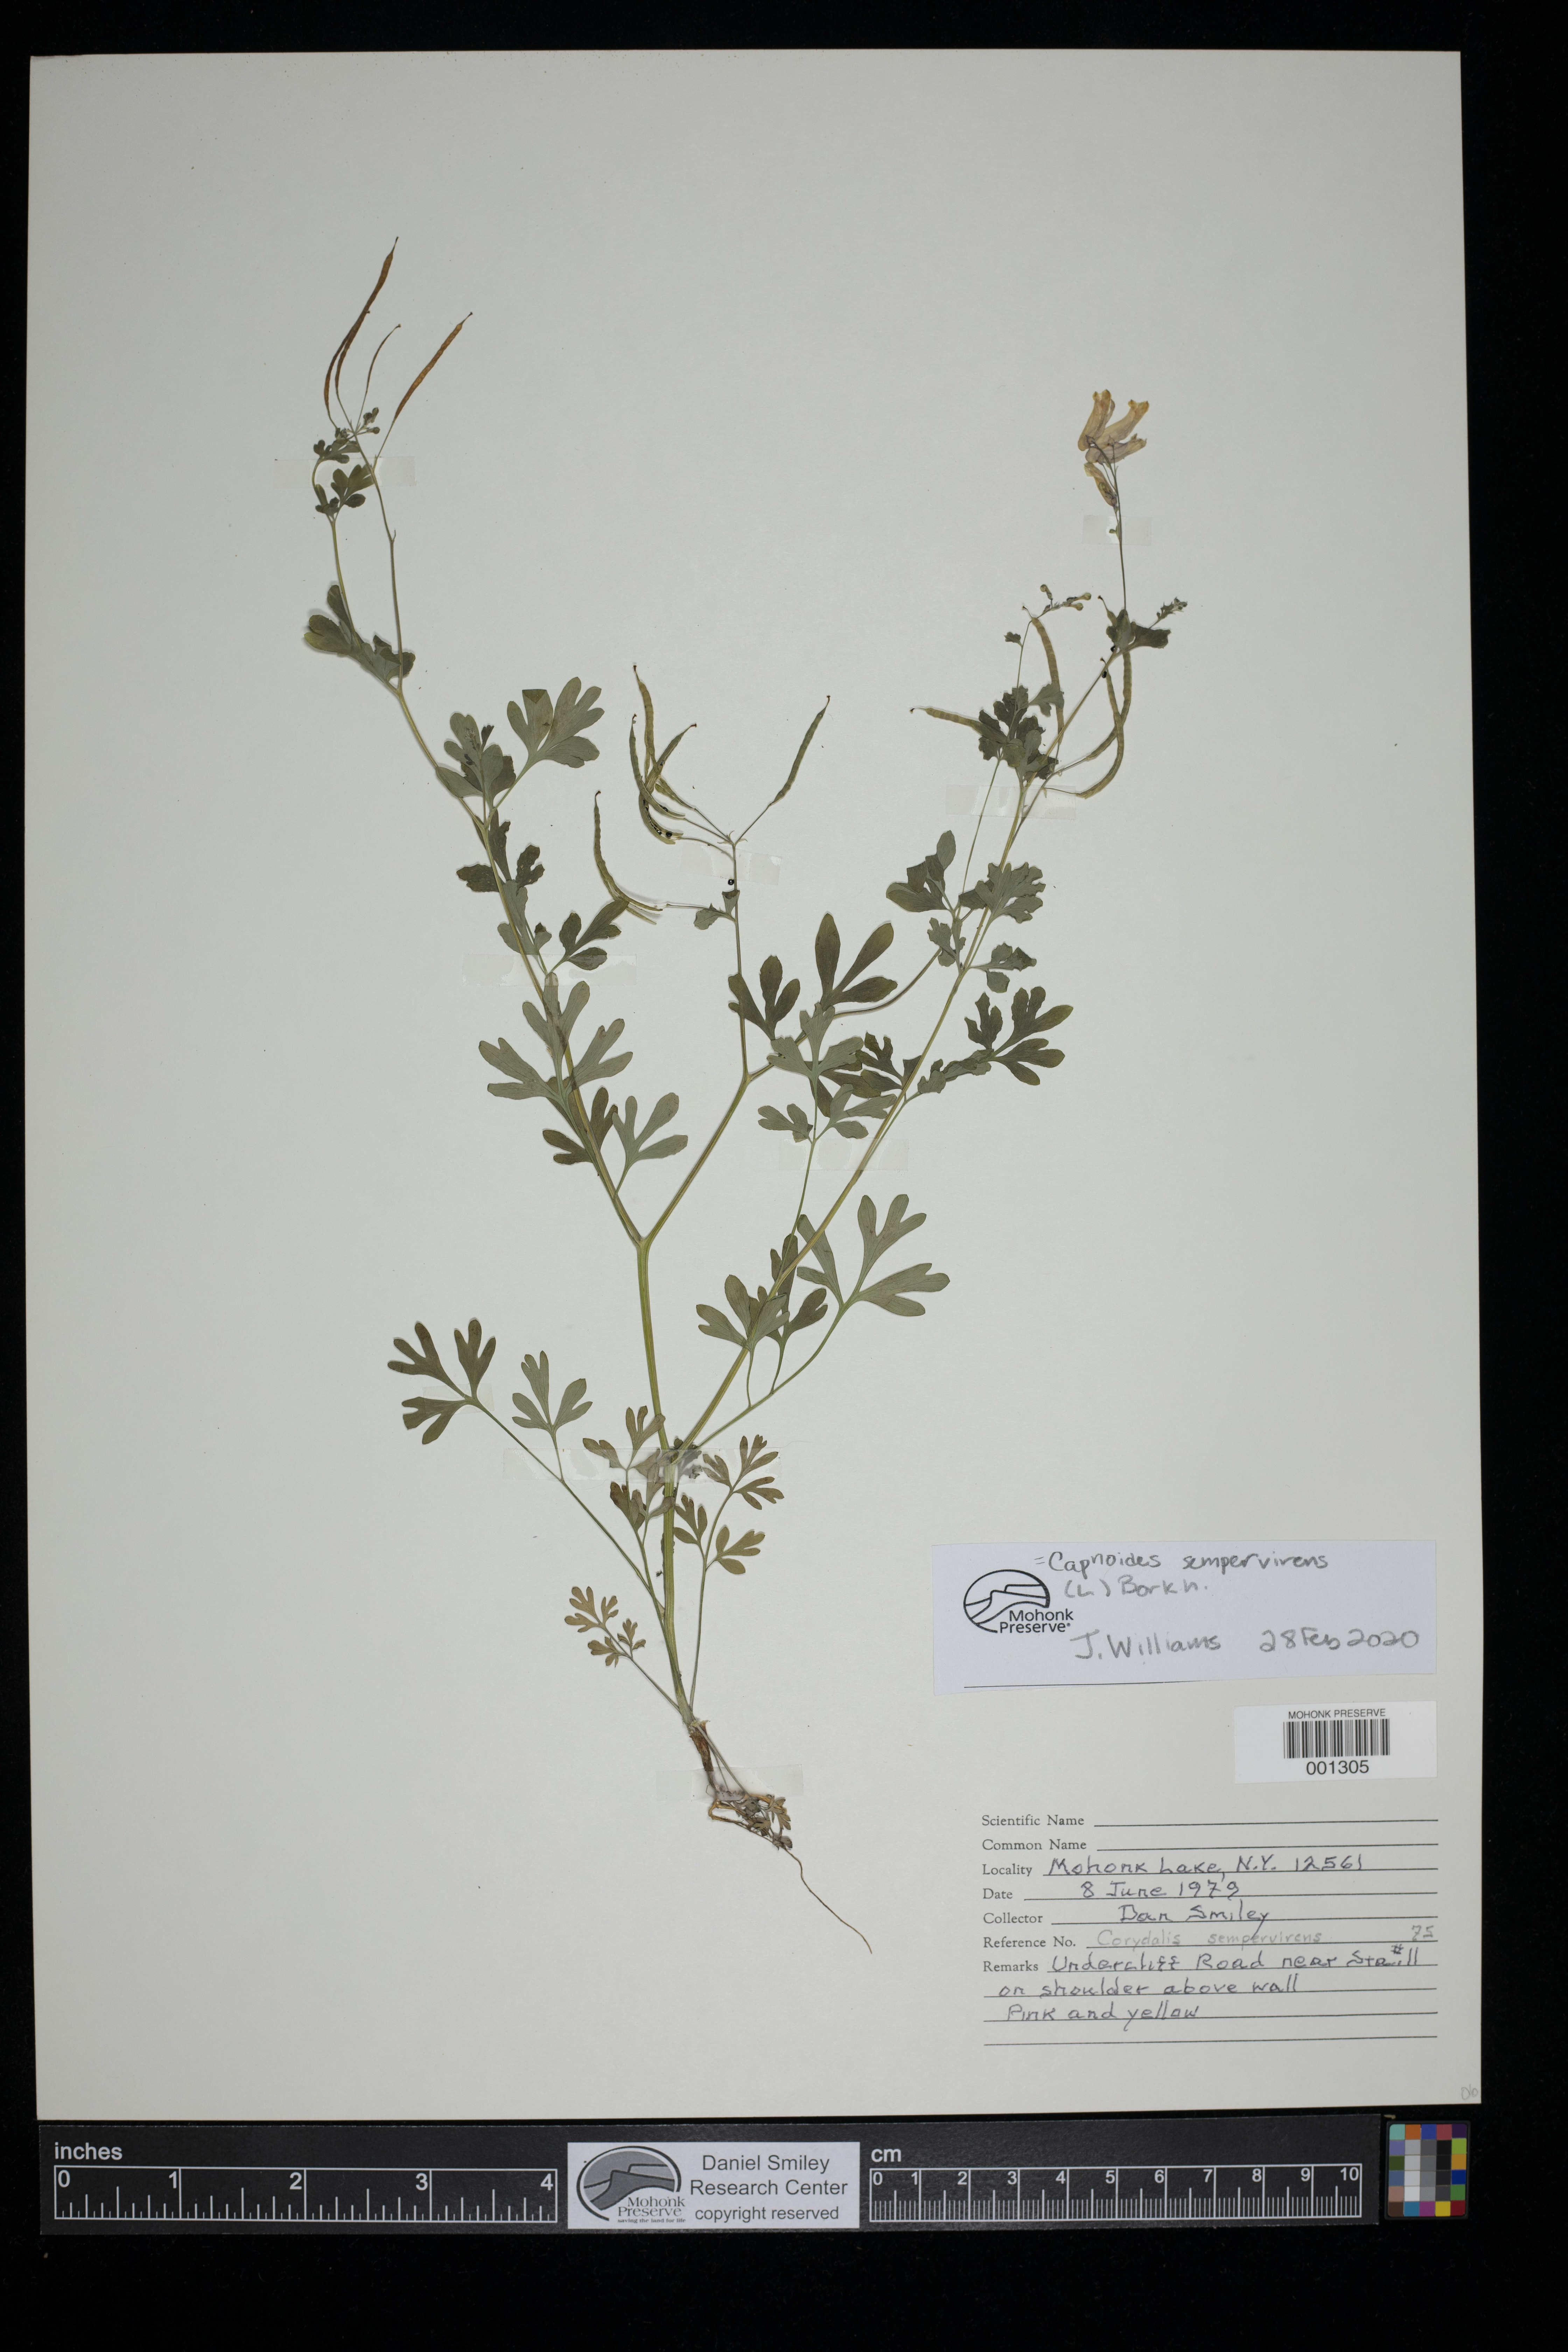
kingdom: Plantae
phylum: Tracheophyta
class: Magnoliopsida
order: Ranunculales
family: Papaveraceae
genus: Capnoides
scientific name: Capnoides sempervirens
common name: Rock harlequin
